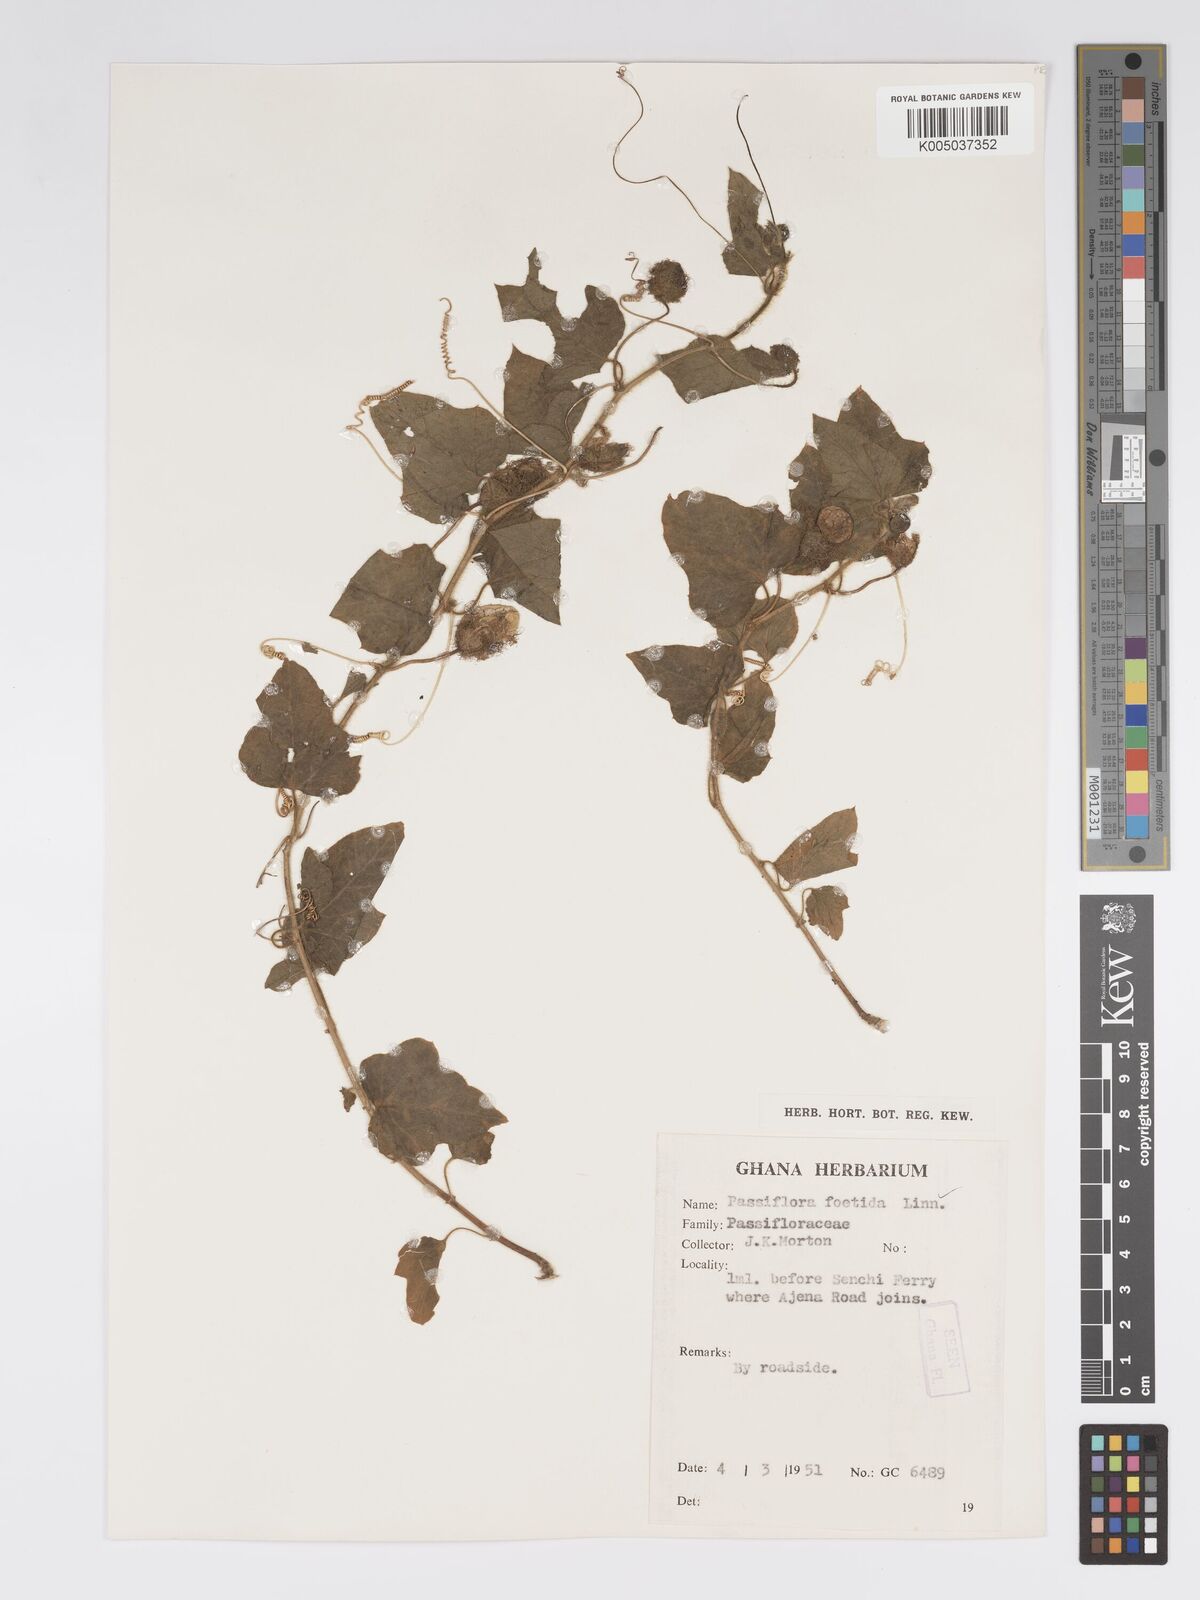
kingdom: Plantae
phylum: Tracheophyta
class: Magnoliopsida
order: Malpighiales
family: Passifloraceae
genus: Passiflora
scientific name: Passiflora foetida
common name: Fetid passionflower
